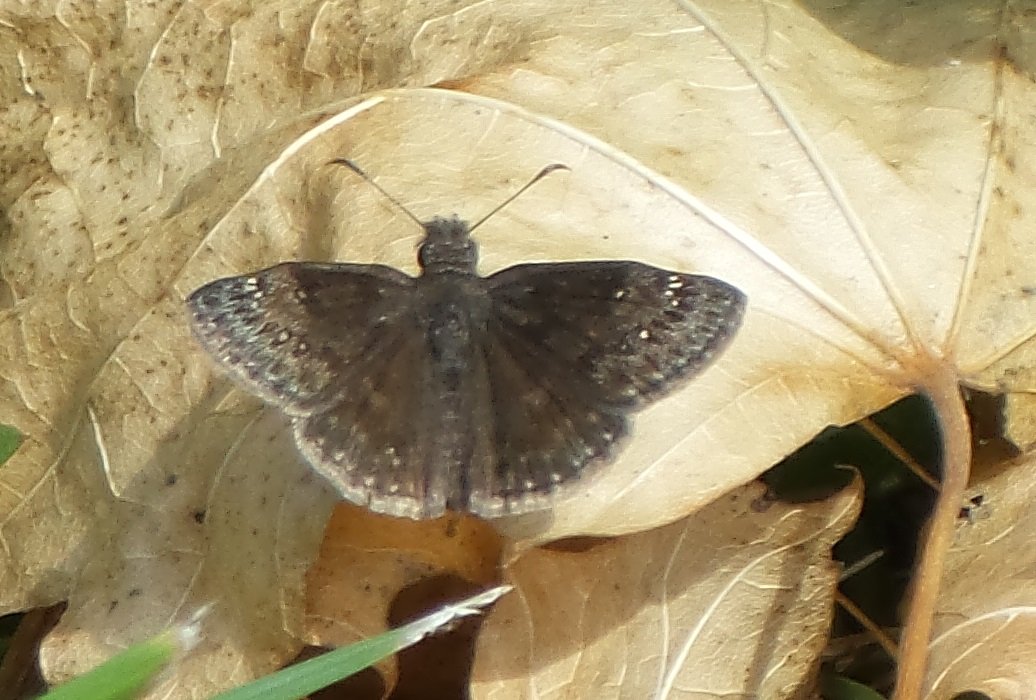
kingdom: Animalia
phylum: Arthropoda
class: Insecta
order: Lepidoptera
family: Hesperiidae
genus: Gesta
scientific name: Gesta
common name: Wild Indigo Duskywing
